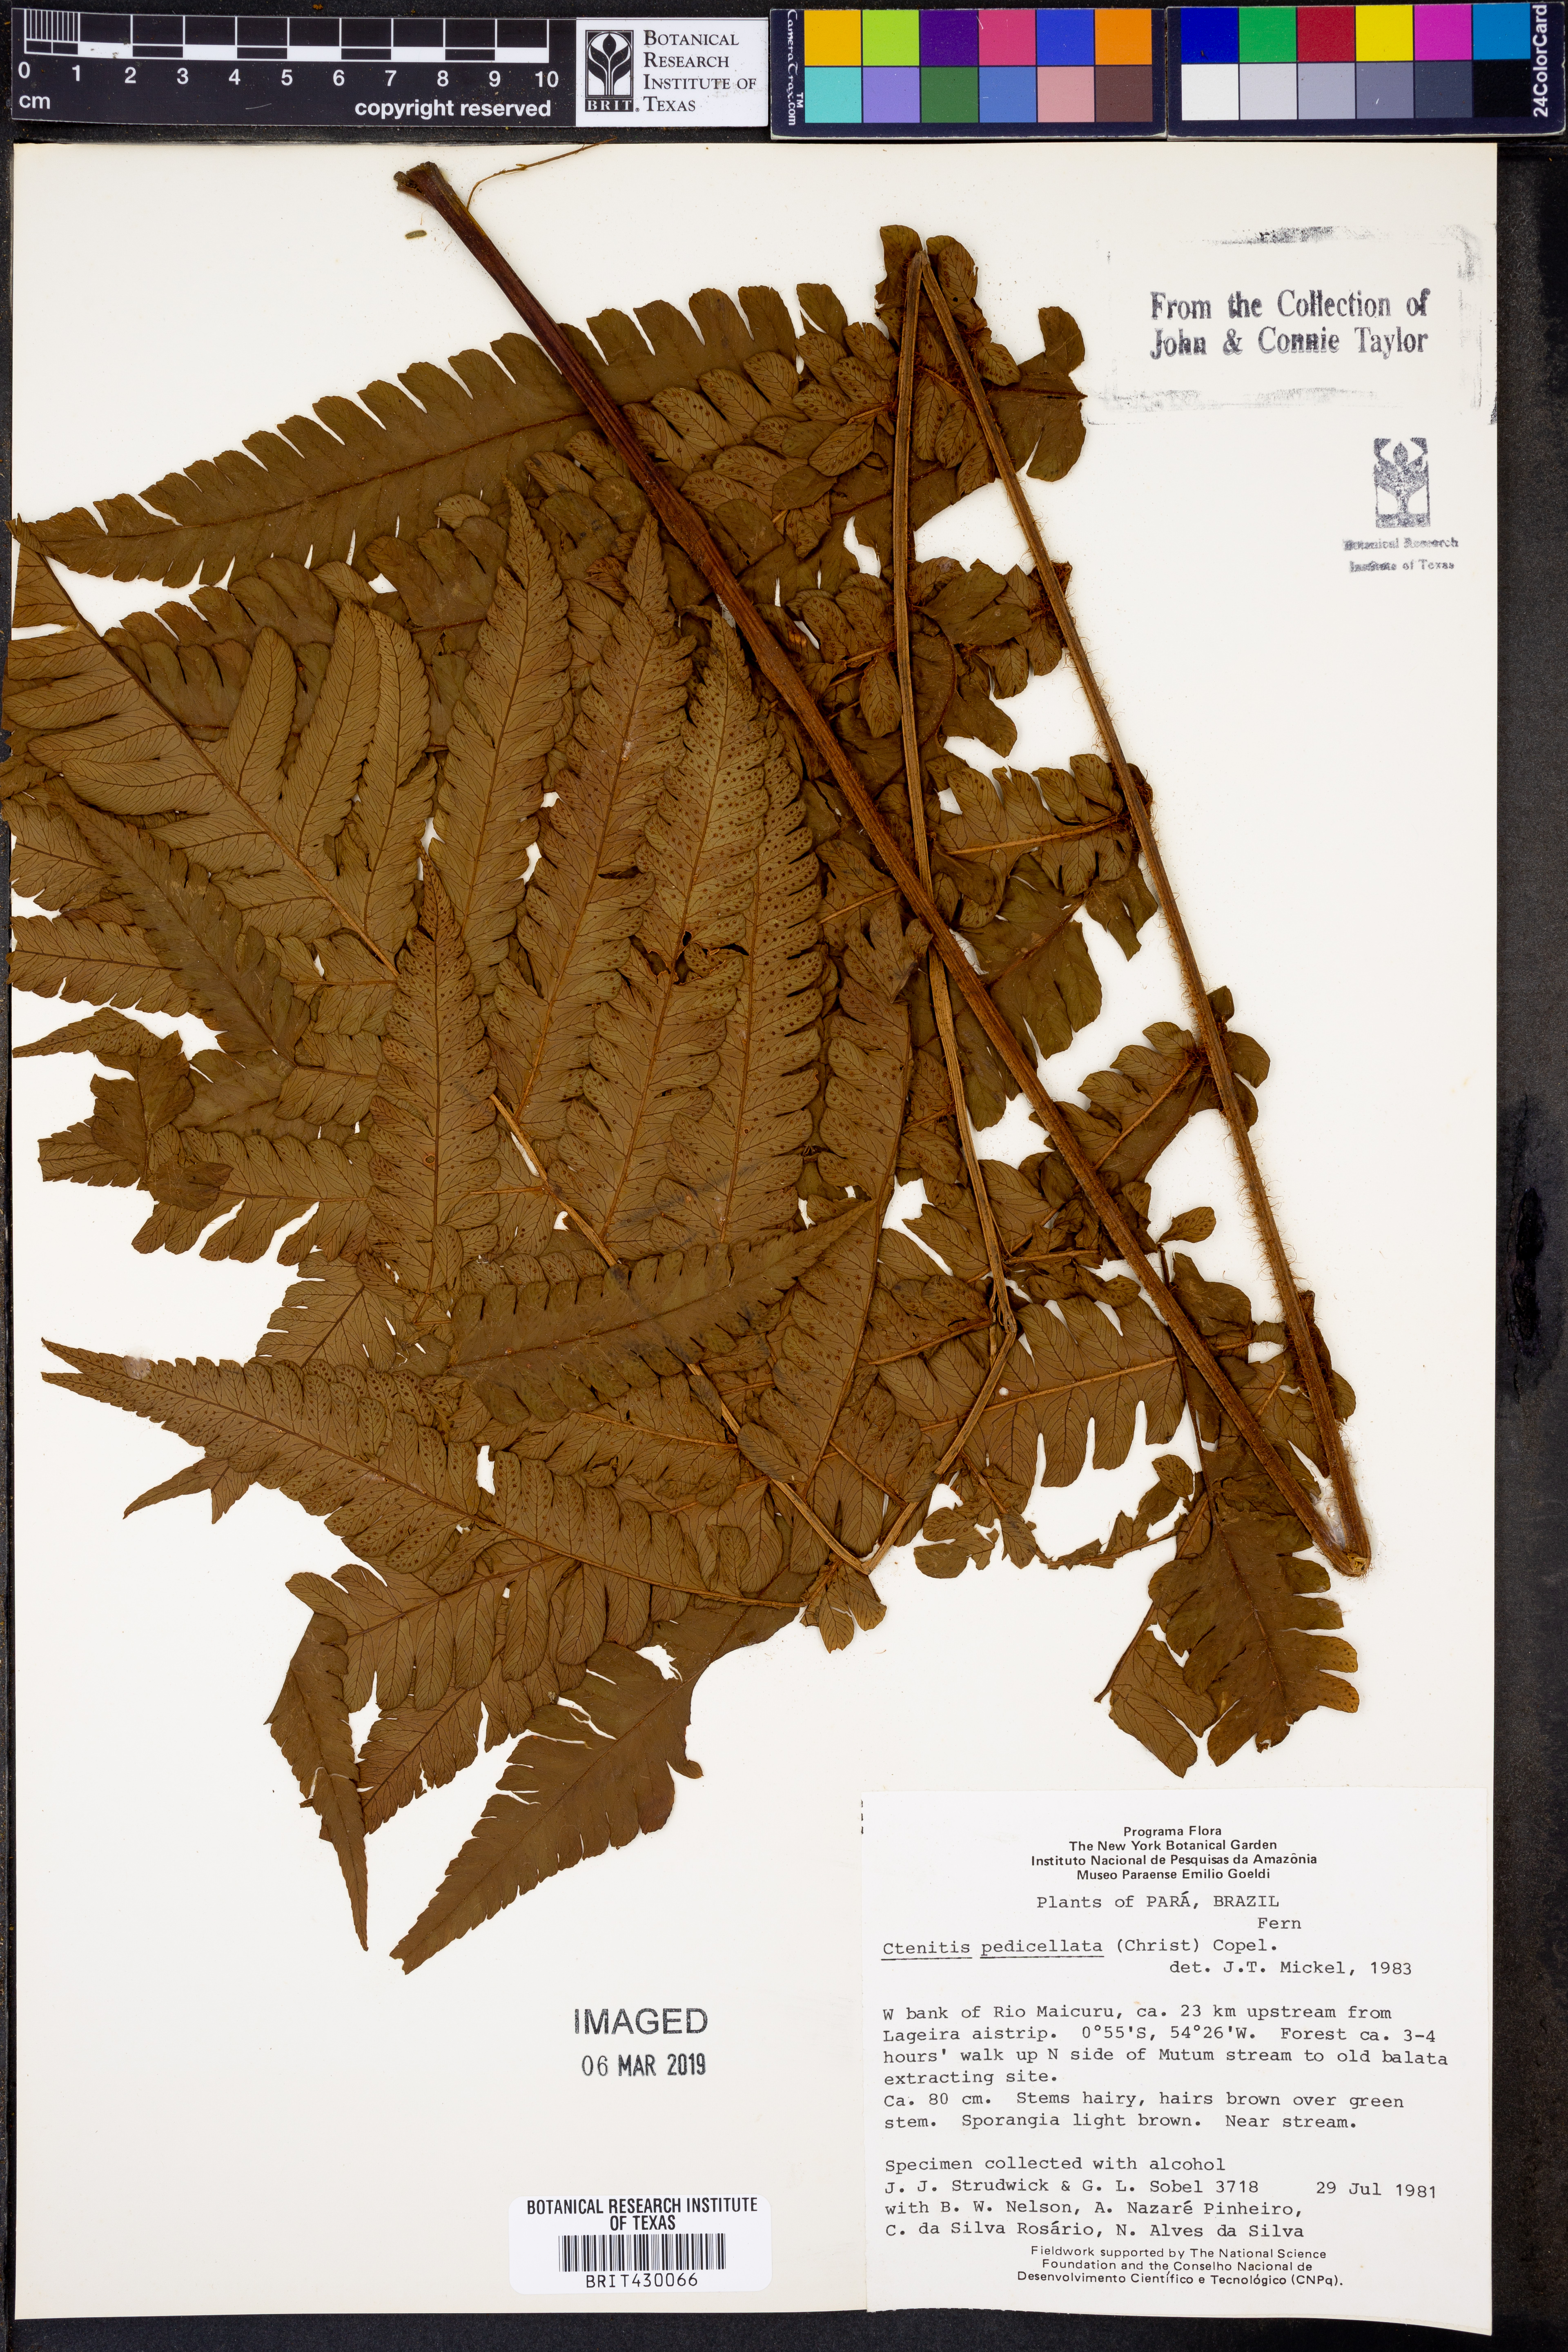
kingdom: Plantae
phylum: Tracheophyta
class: Polypodiopsida
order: Polypodiales
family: Dryopteridaceae
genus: Ctenitis
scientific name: Ctenitis nervata
